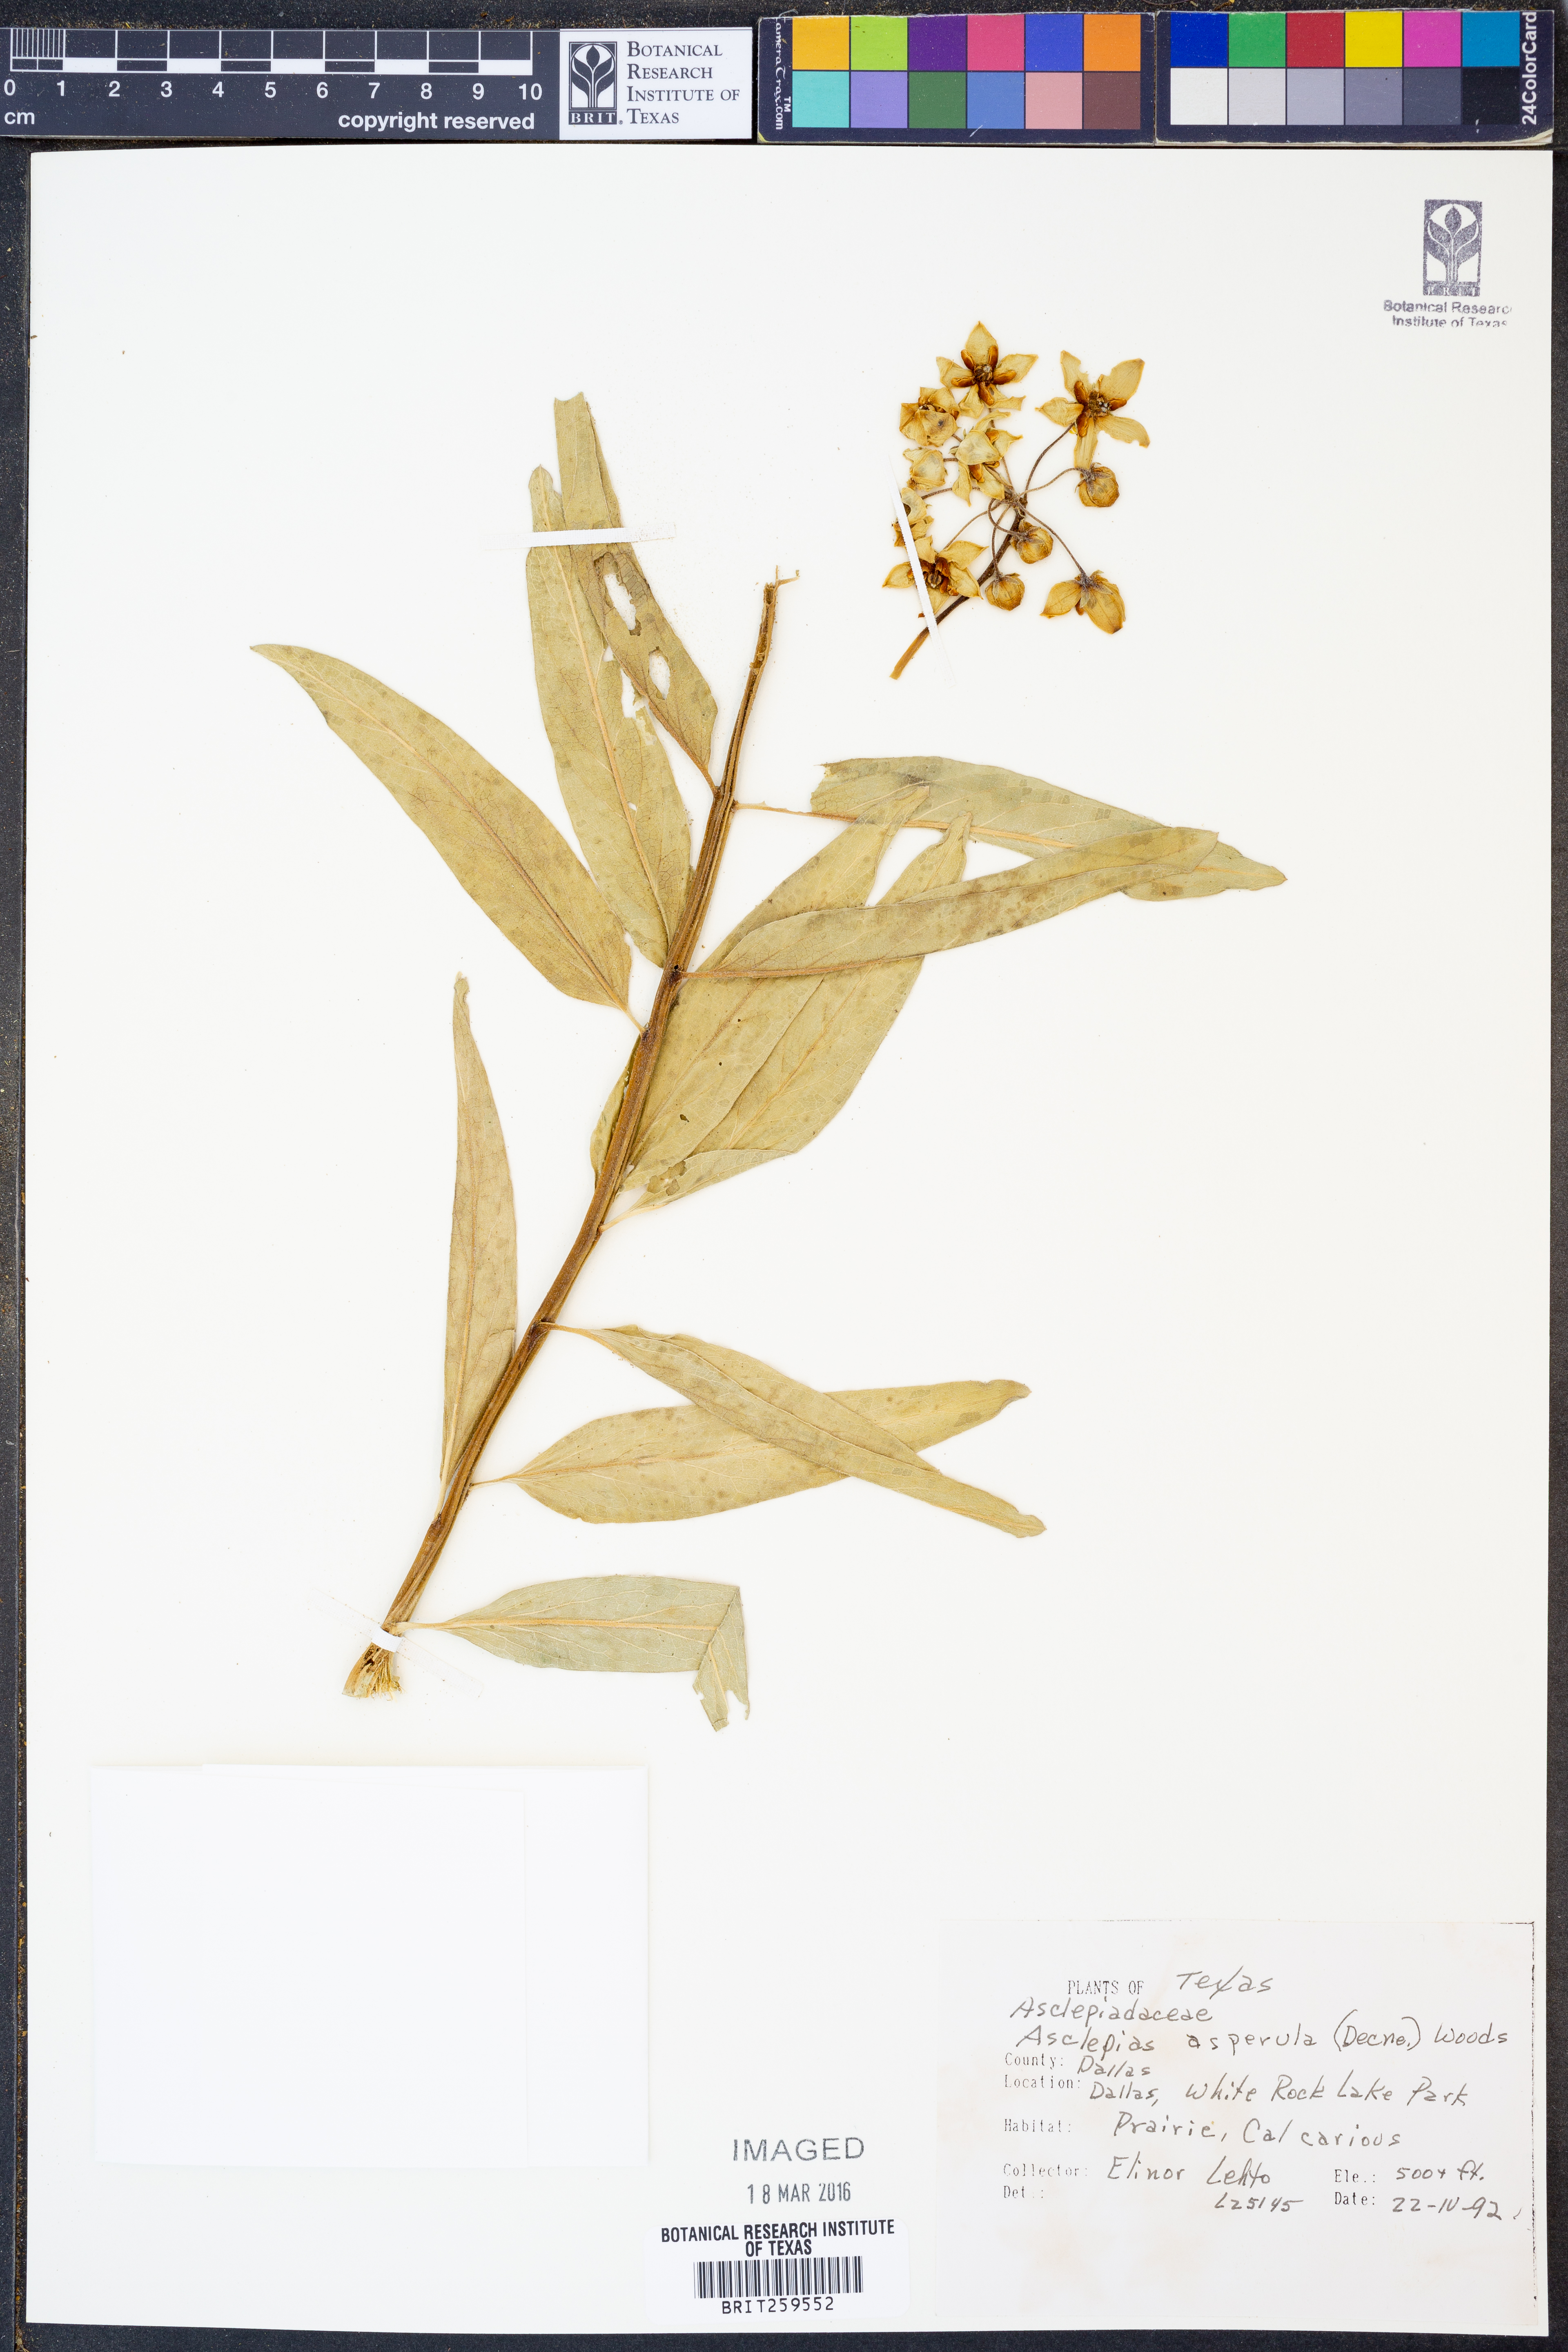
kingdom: Plantae
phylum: Tracheophyta
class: Magnoliopsida
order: Gentianales
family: Apocynaceae
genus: Asclepias
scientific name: Asclepias asperula
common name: Antelope horns
